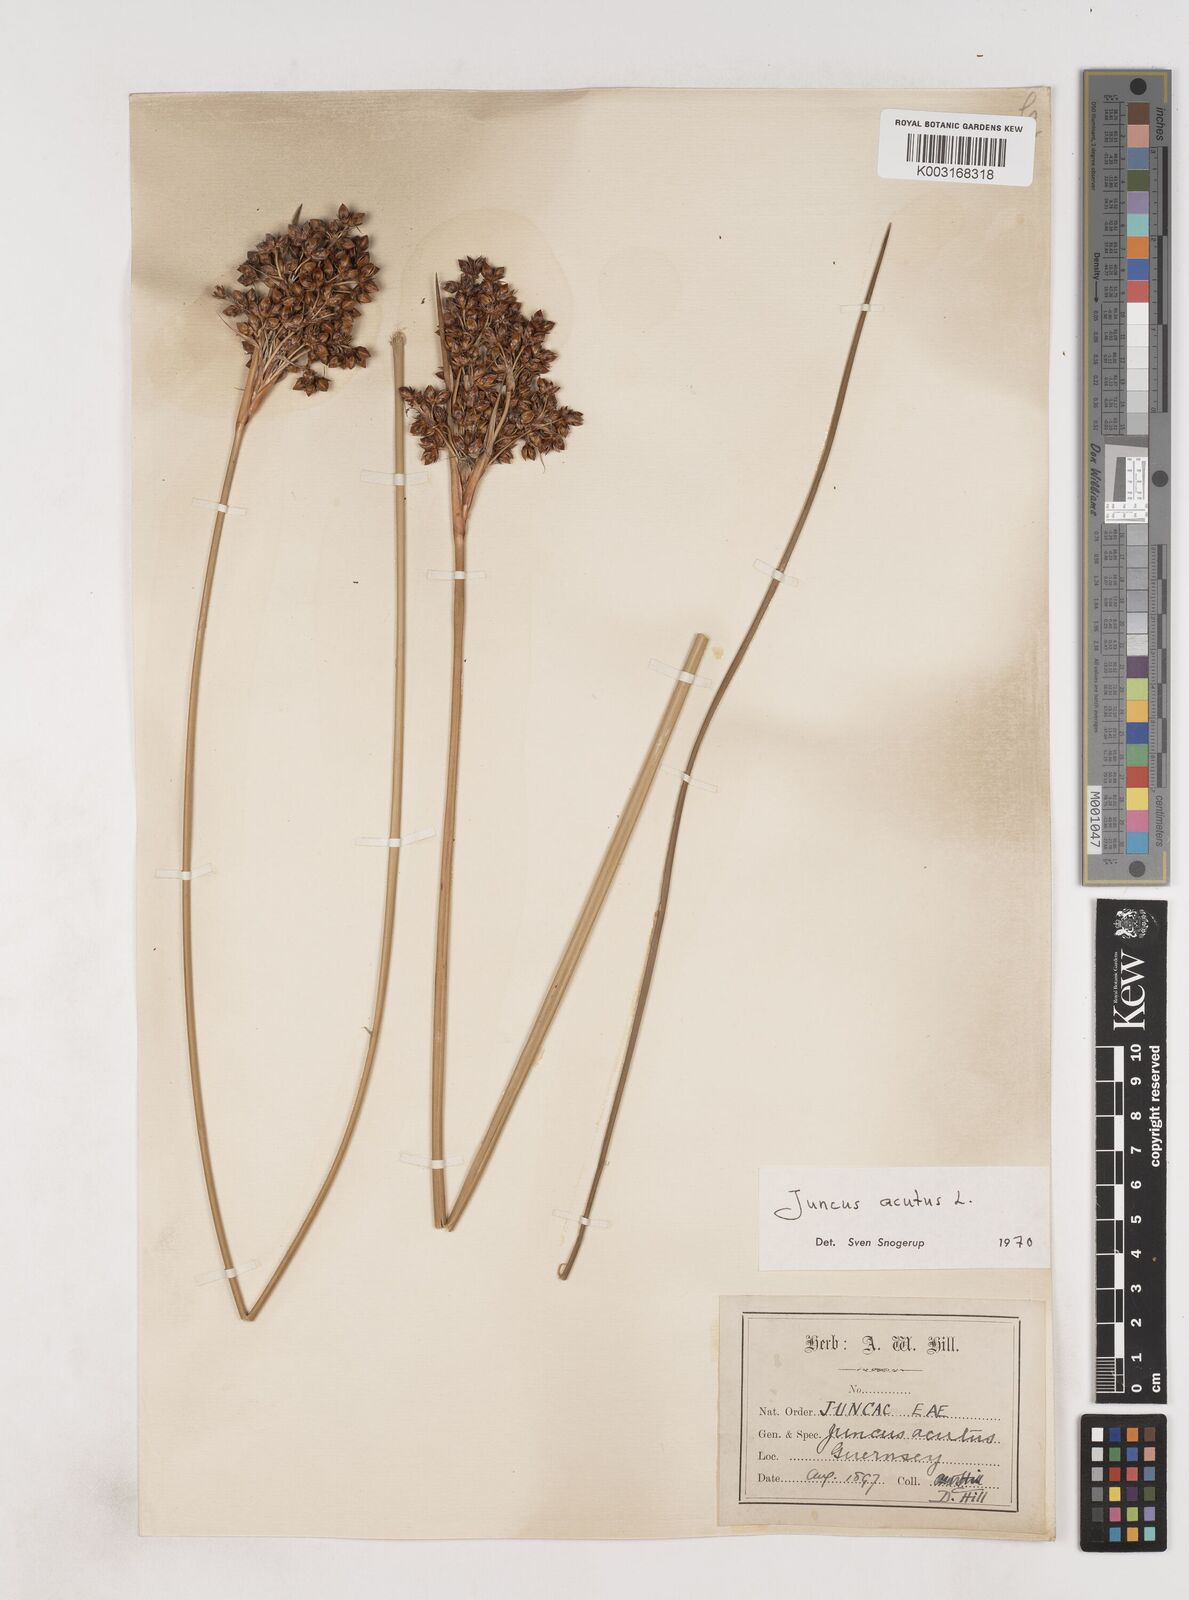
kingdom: Plantae
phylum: Tracheophyta
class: Liliopsida
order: Poales
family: Juncaceae
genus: Juncus
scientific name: Juncus acutus
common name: Sharp rush
